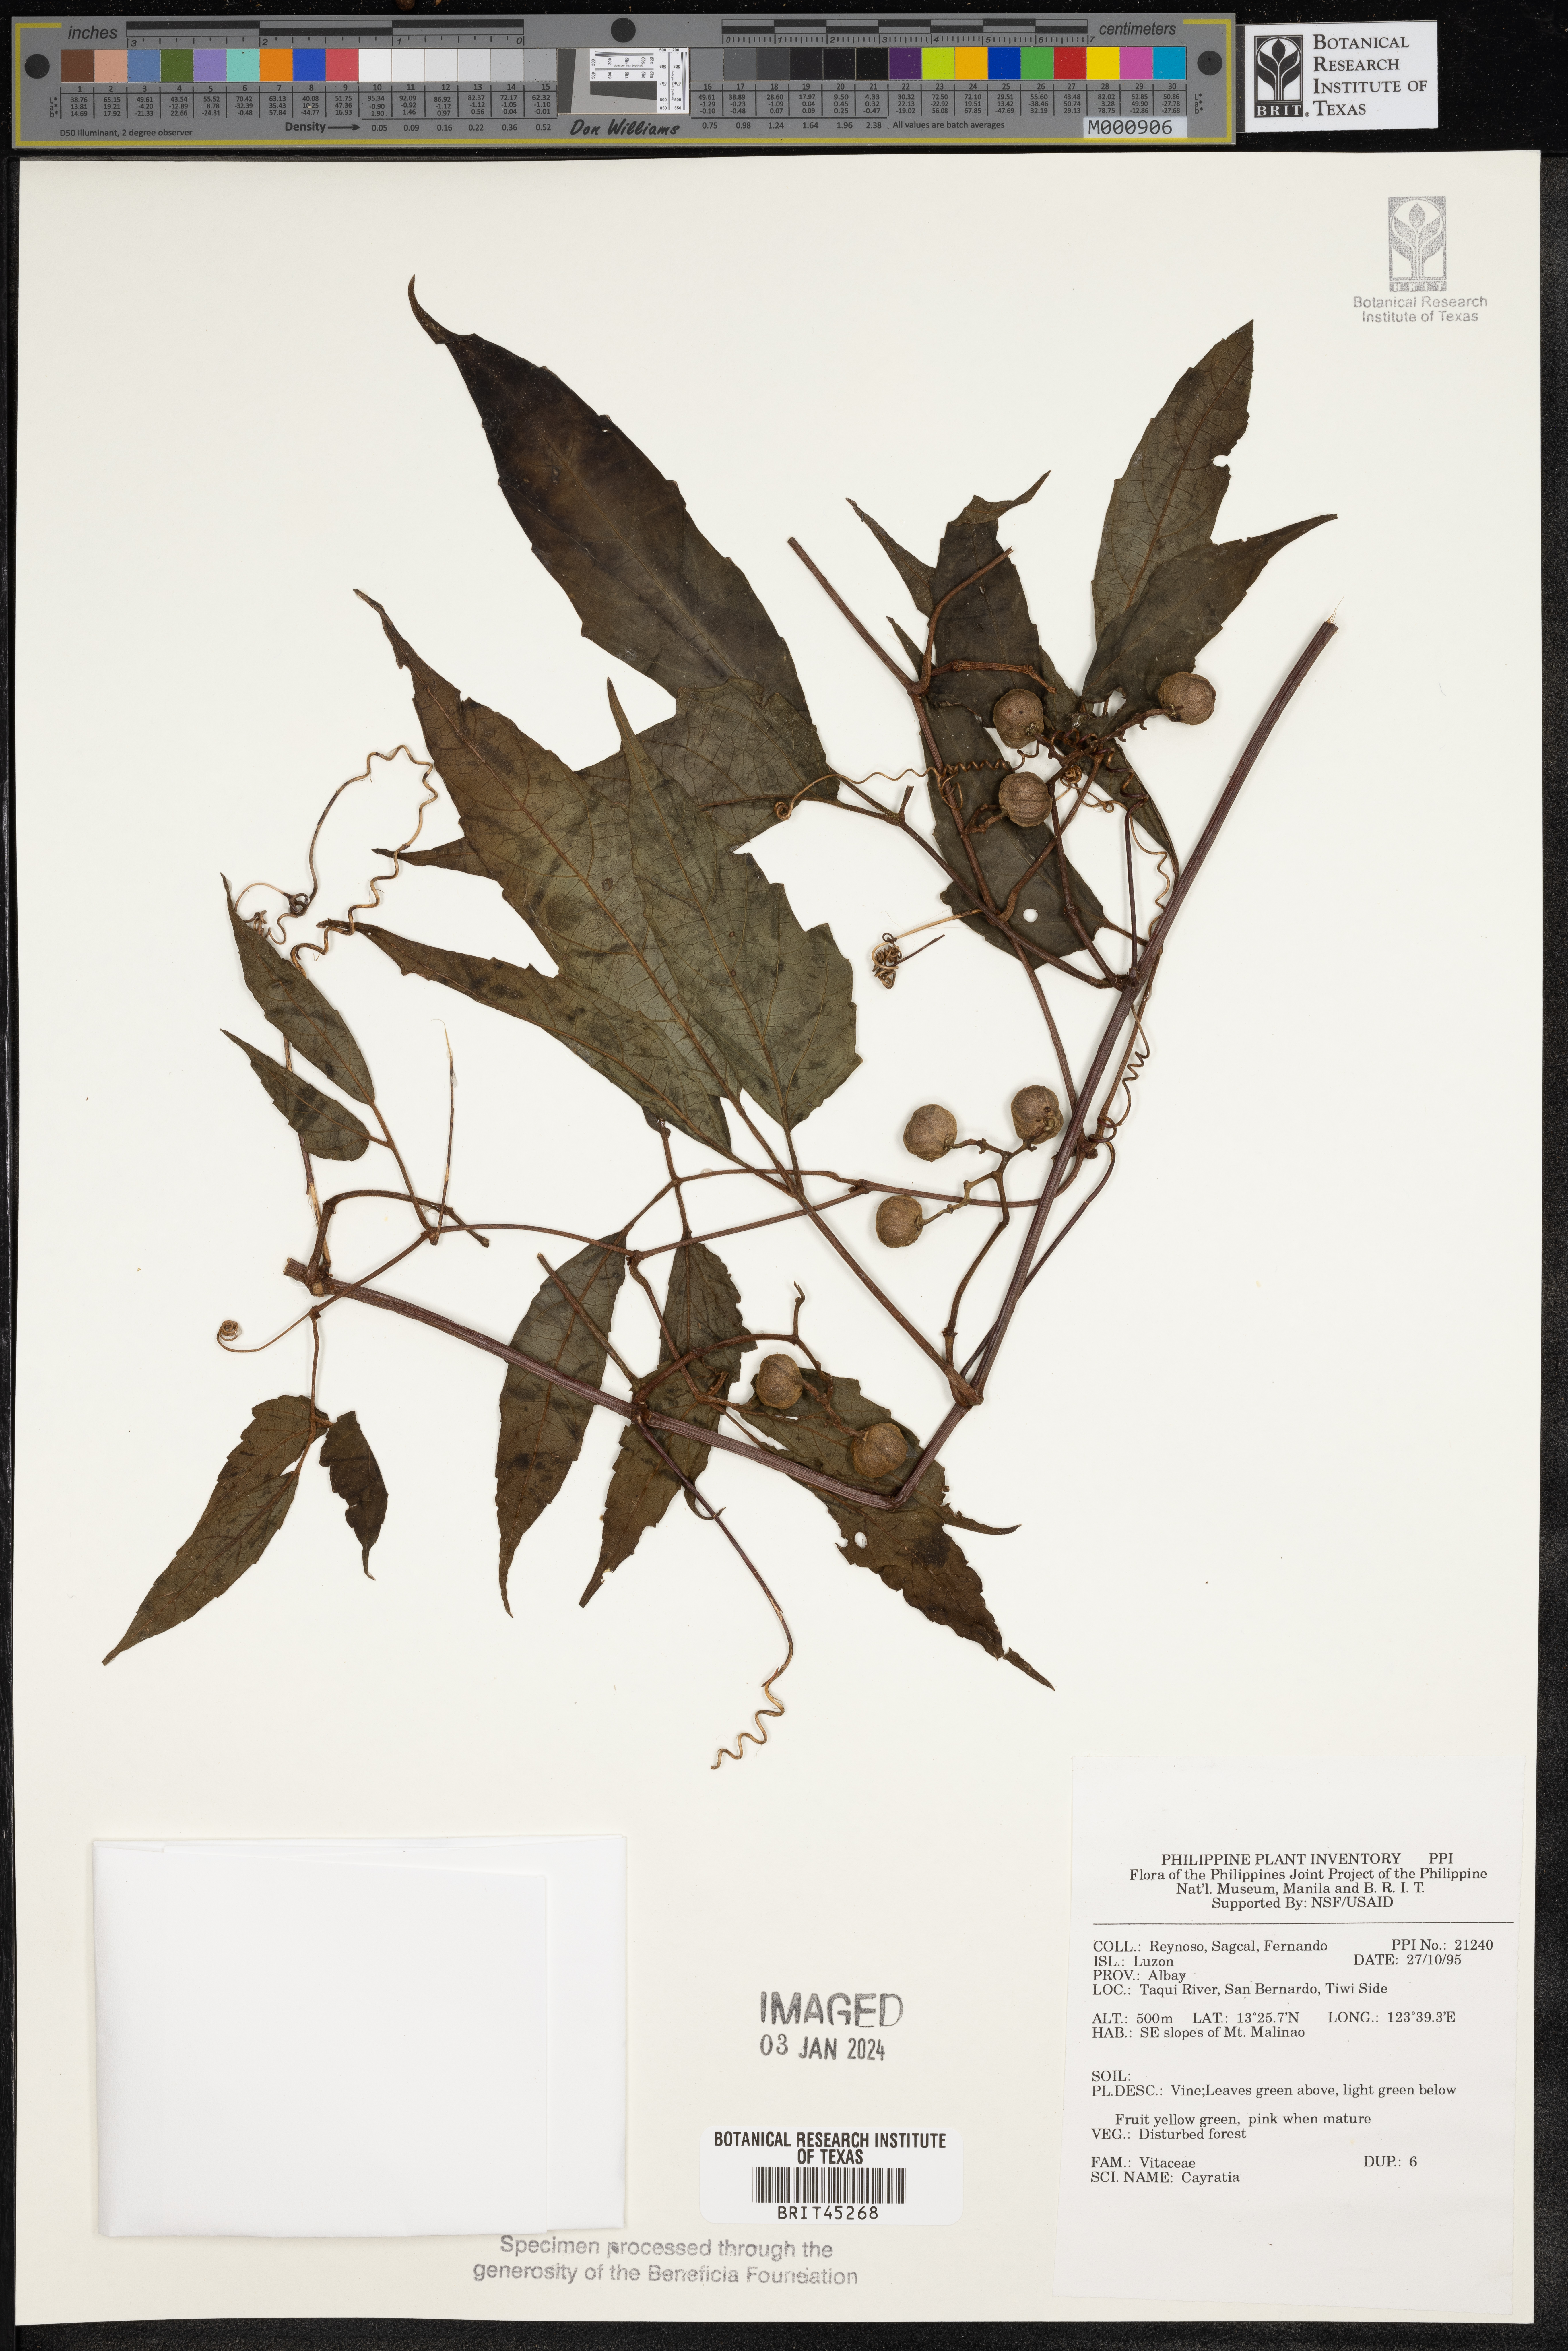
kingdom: Plantae
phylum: Tracheophyta
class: Magnoliopsida
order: Vitales
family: Vitaceae
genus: Cayratia
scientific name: Cayratia
